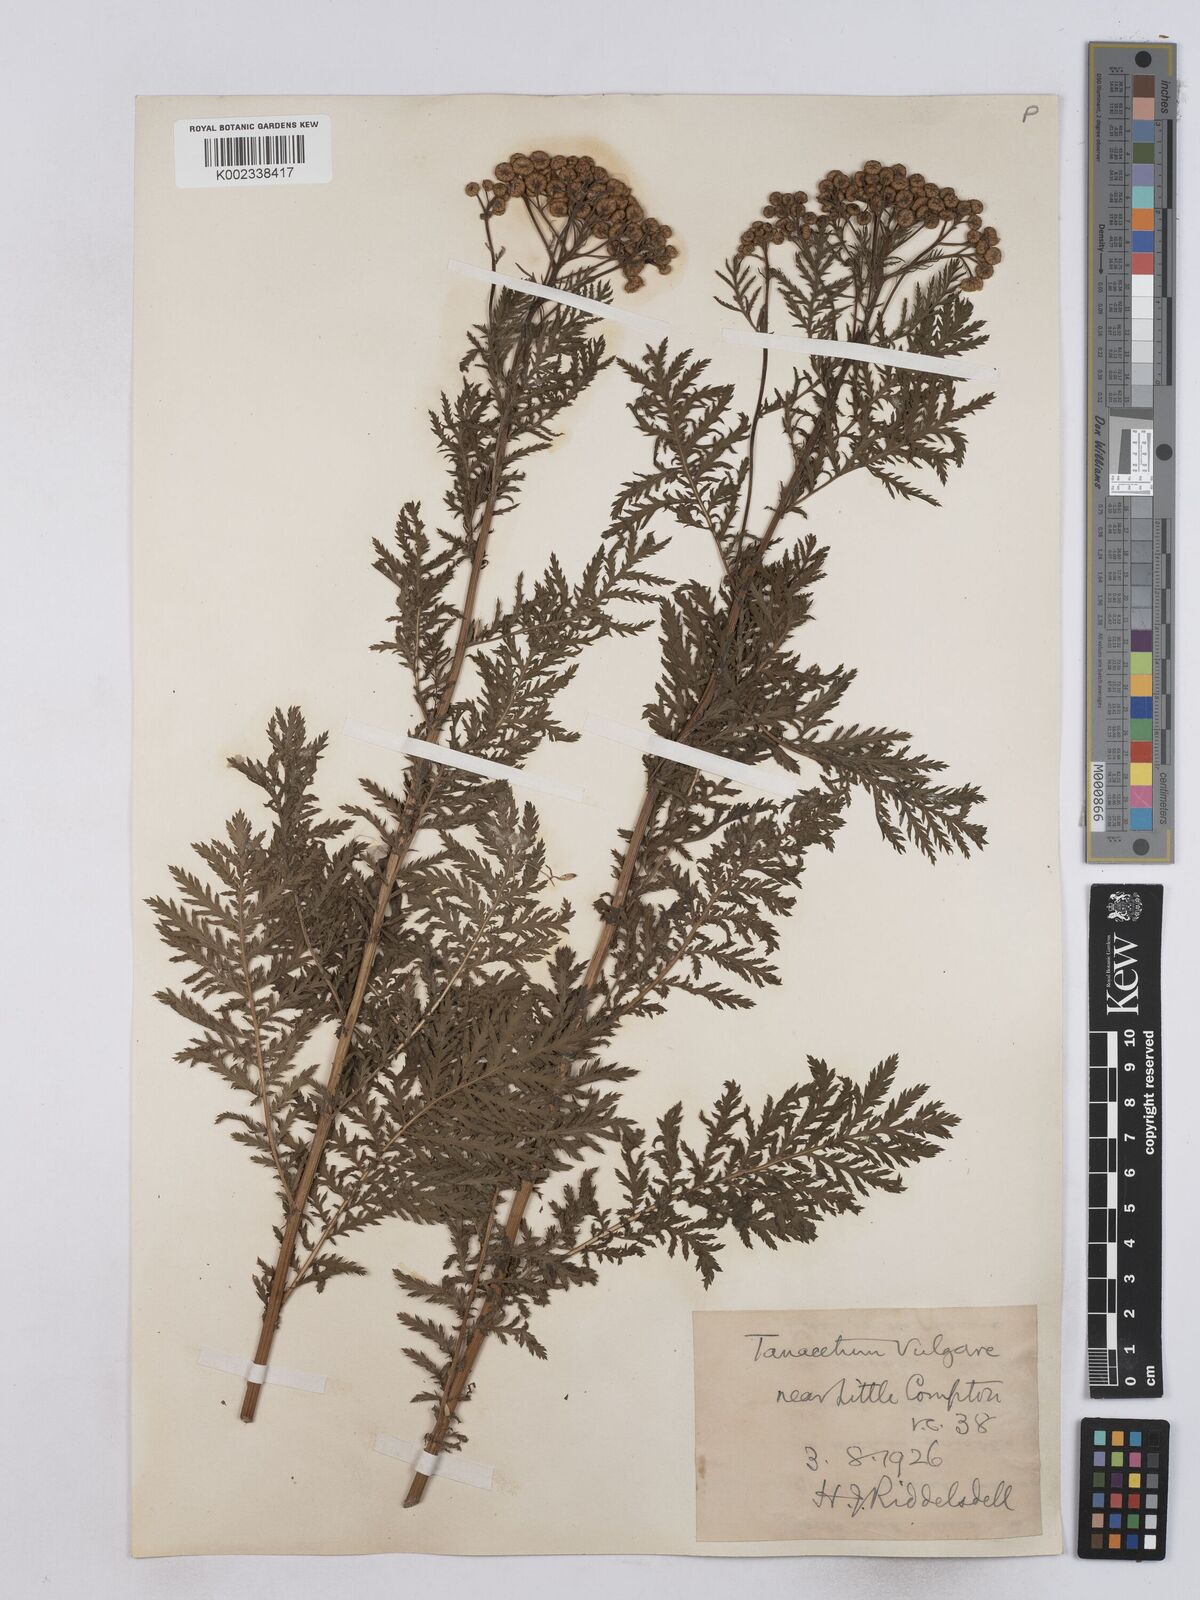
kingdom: Plantae
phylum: Tracheophyta
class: Magnoliopsida
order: Asterales
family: Asteraceae
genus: Tanacetum
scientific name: Tanacetum vulgare
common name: Common tansy
